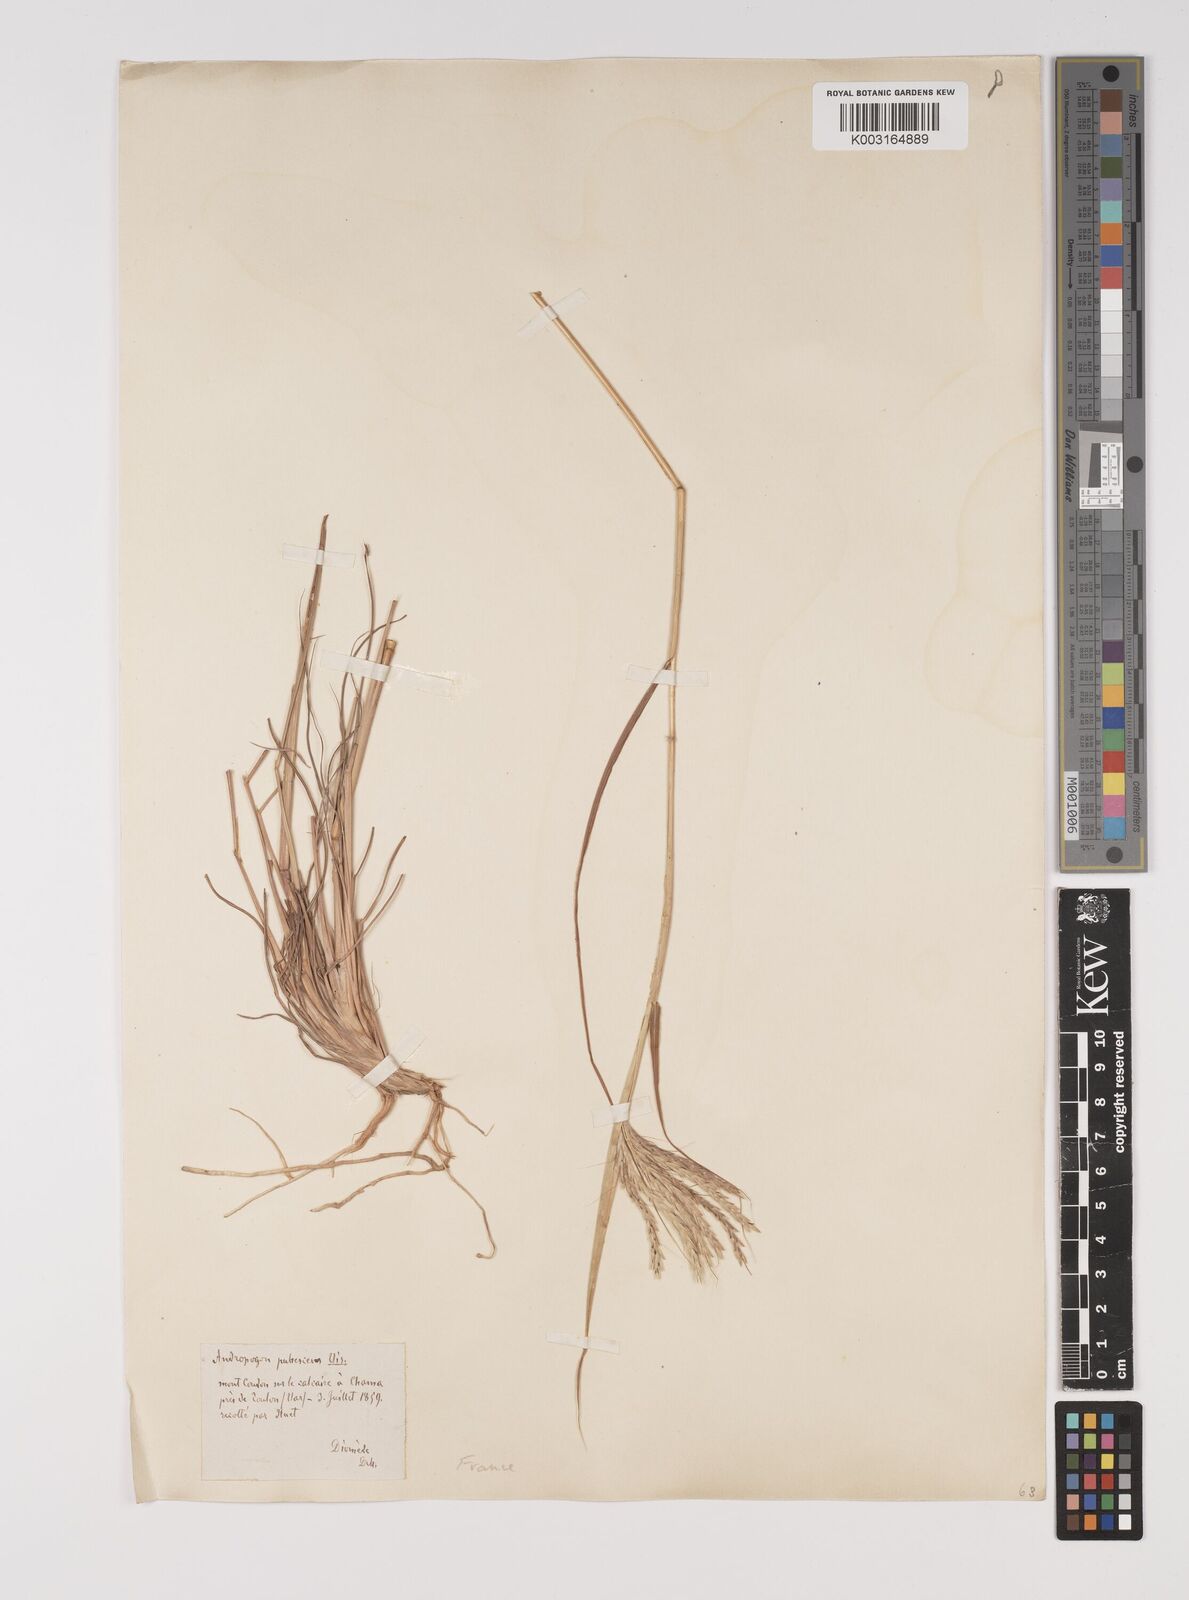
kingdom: Plantae
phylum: Tracheophyta
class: Liliopsida
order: Poales
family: Poaceae
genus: Bothriochloa
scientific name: Bothriochloa ischaemum
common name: Yellow bluestem
